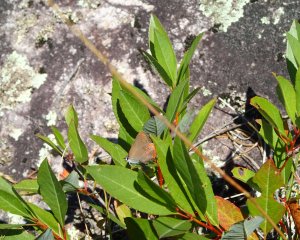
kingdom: Animalia
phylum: Arthropoda
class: Insecta
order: Lepidoptera
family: Lycaenidae
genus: Harkenclenus
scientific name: Harkenclenus titus
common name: Coral Hairstreak
